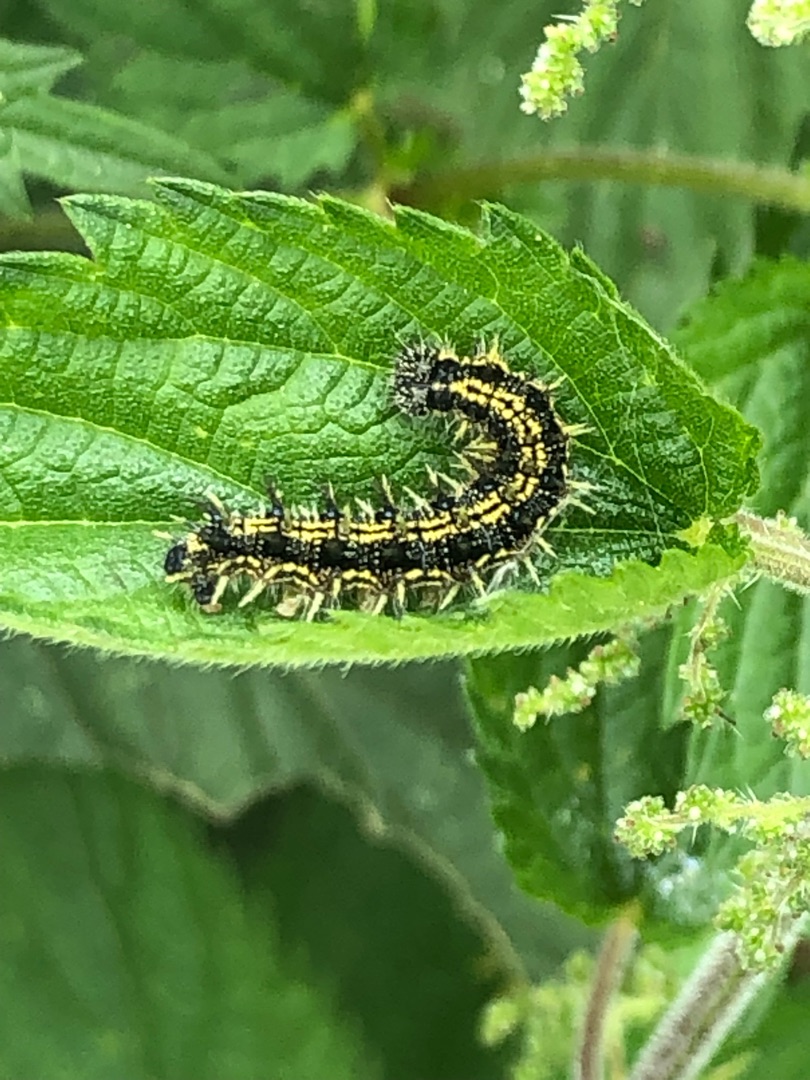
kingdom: Animalia
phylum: Arthropoda
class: Insecta
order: Lepidoptera
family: Nymphalidae
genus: Aglais
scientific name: Aglais urticae
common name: Nældens takvinge
